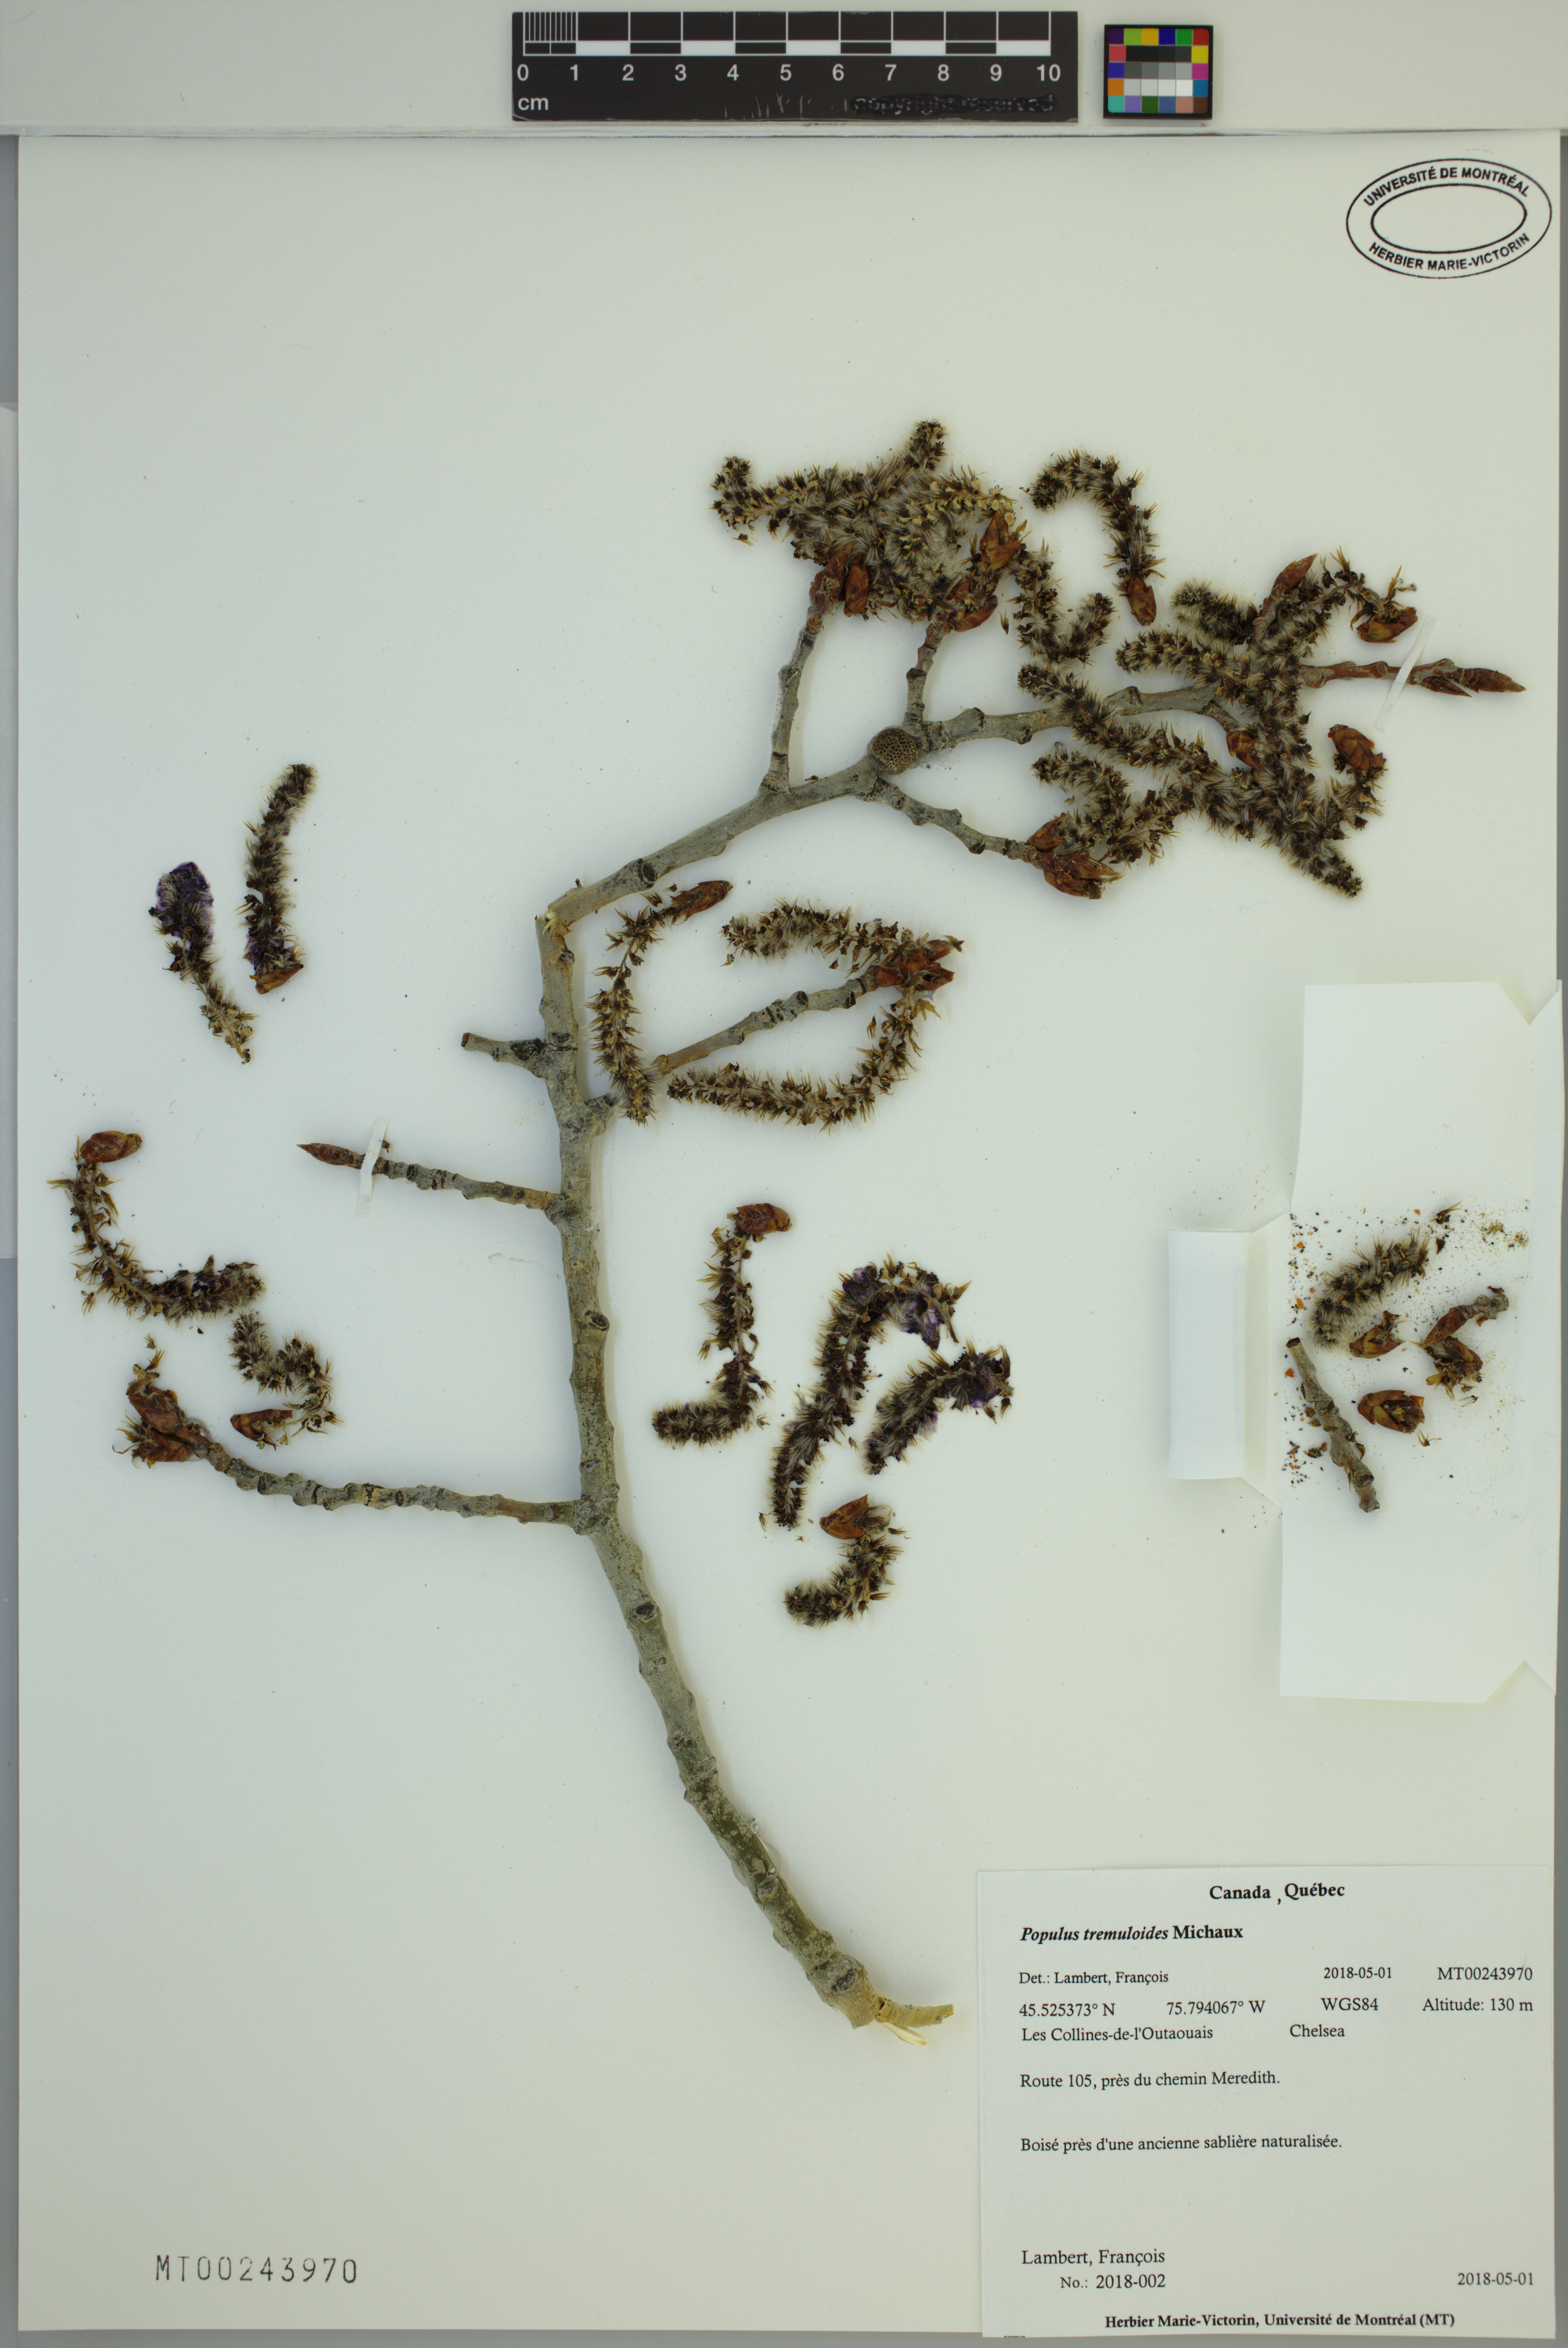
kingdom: Plantae
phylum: Tracheophyta
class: Magnoliopsida
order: Malpighiales
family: Salicaceae
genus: Populus
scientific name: Populus tremuloides
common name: Quaking aspen
